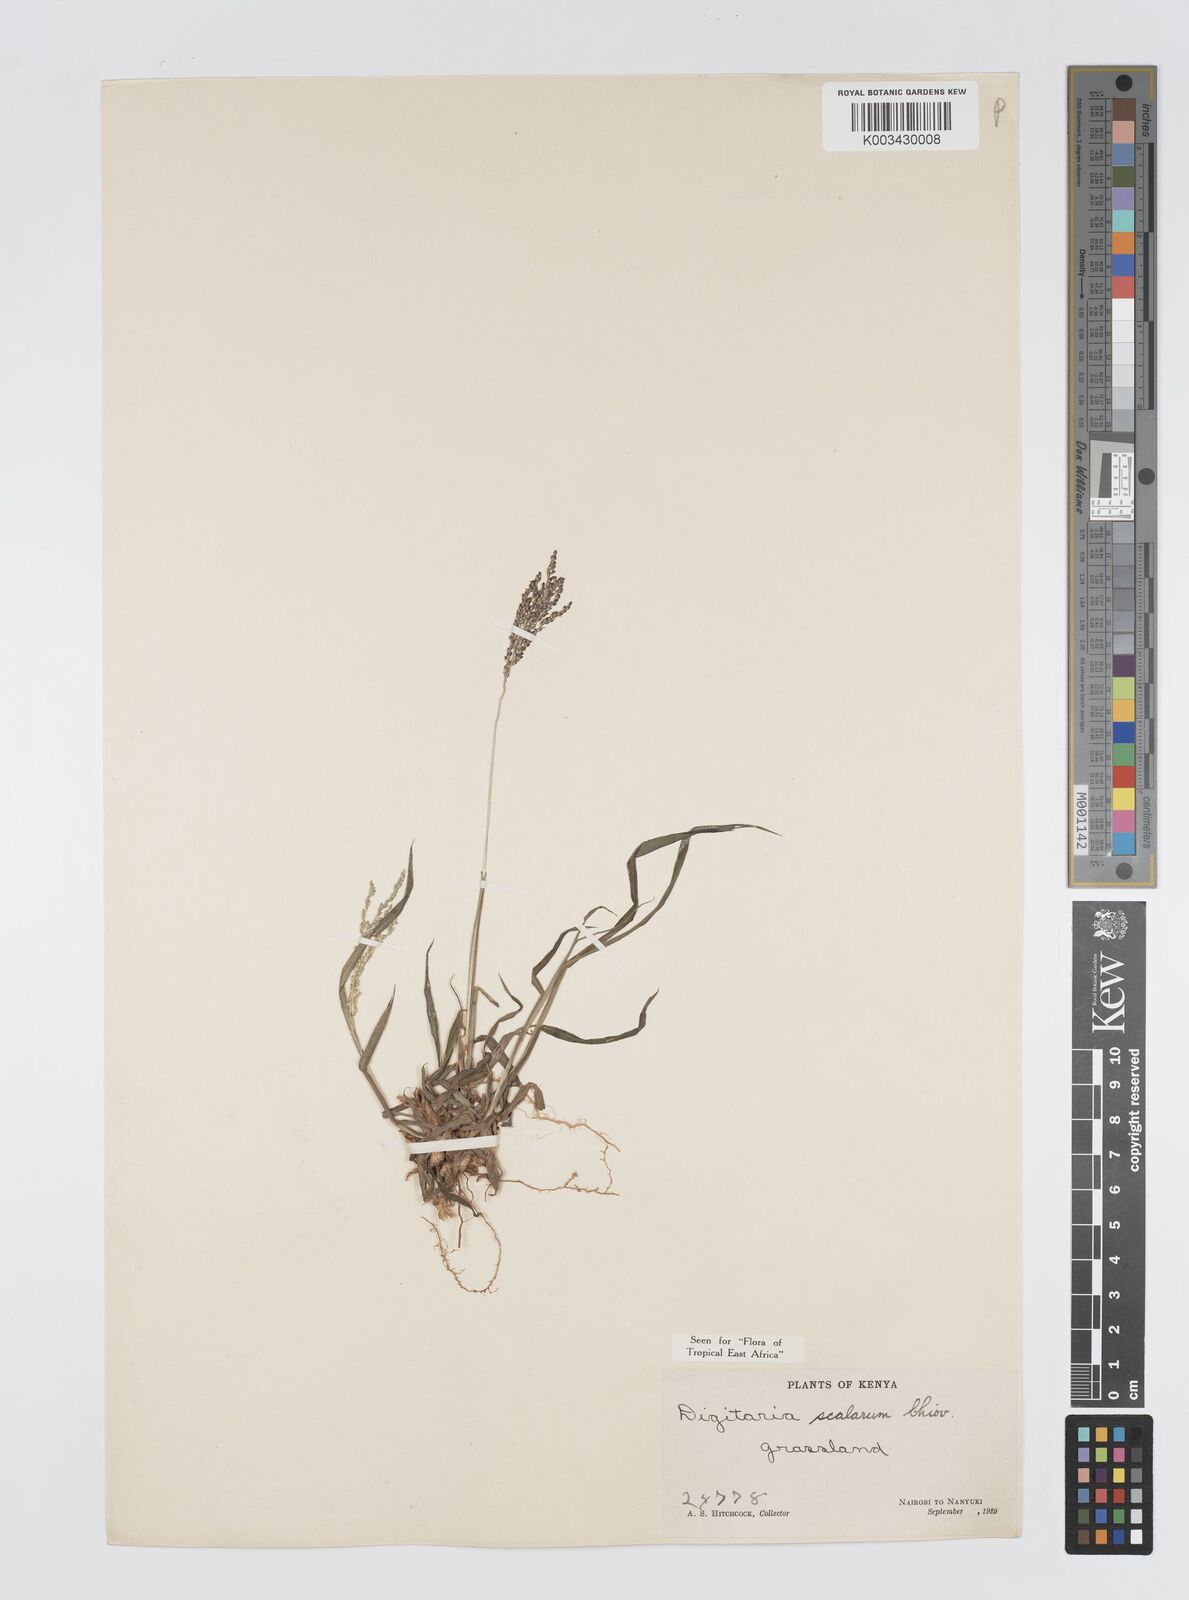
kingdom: Plantae
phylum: Tracheophyta
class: Liliopsida
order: Poales
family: Poaceae
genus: Digitaria
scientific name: Digitaria abyssinica
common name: African couchgrass
